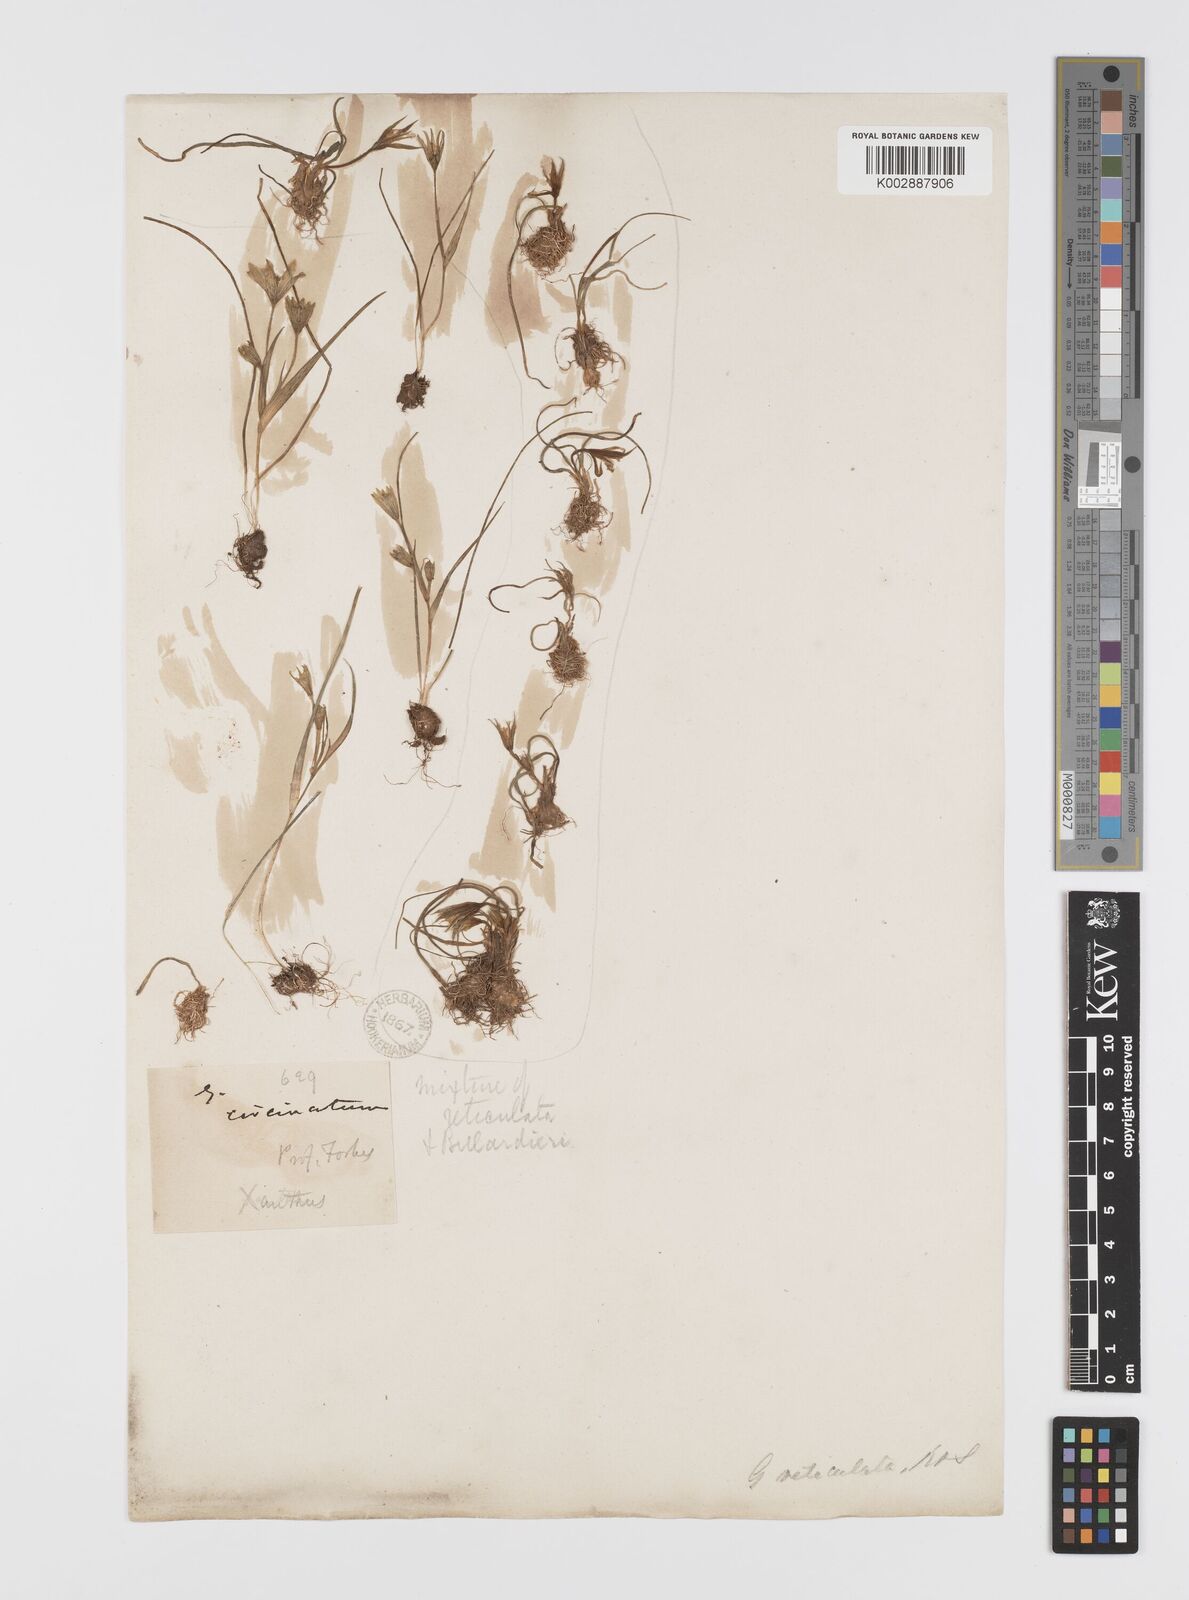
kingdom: Plantae
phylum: Tracheophyta
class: Liliopsida
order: Liliales
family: Liliaceae
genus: Gagea
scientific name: Gagea peduncularis
